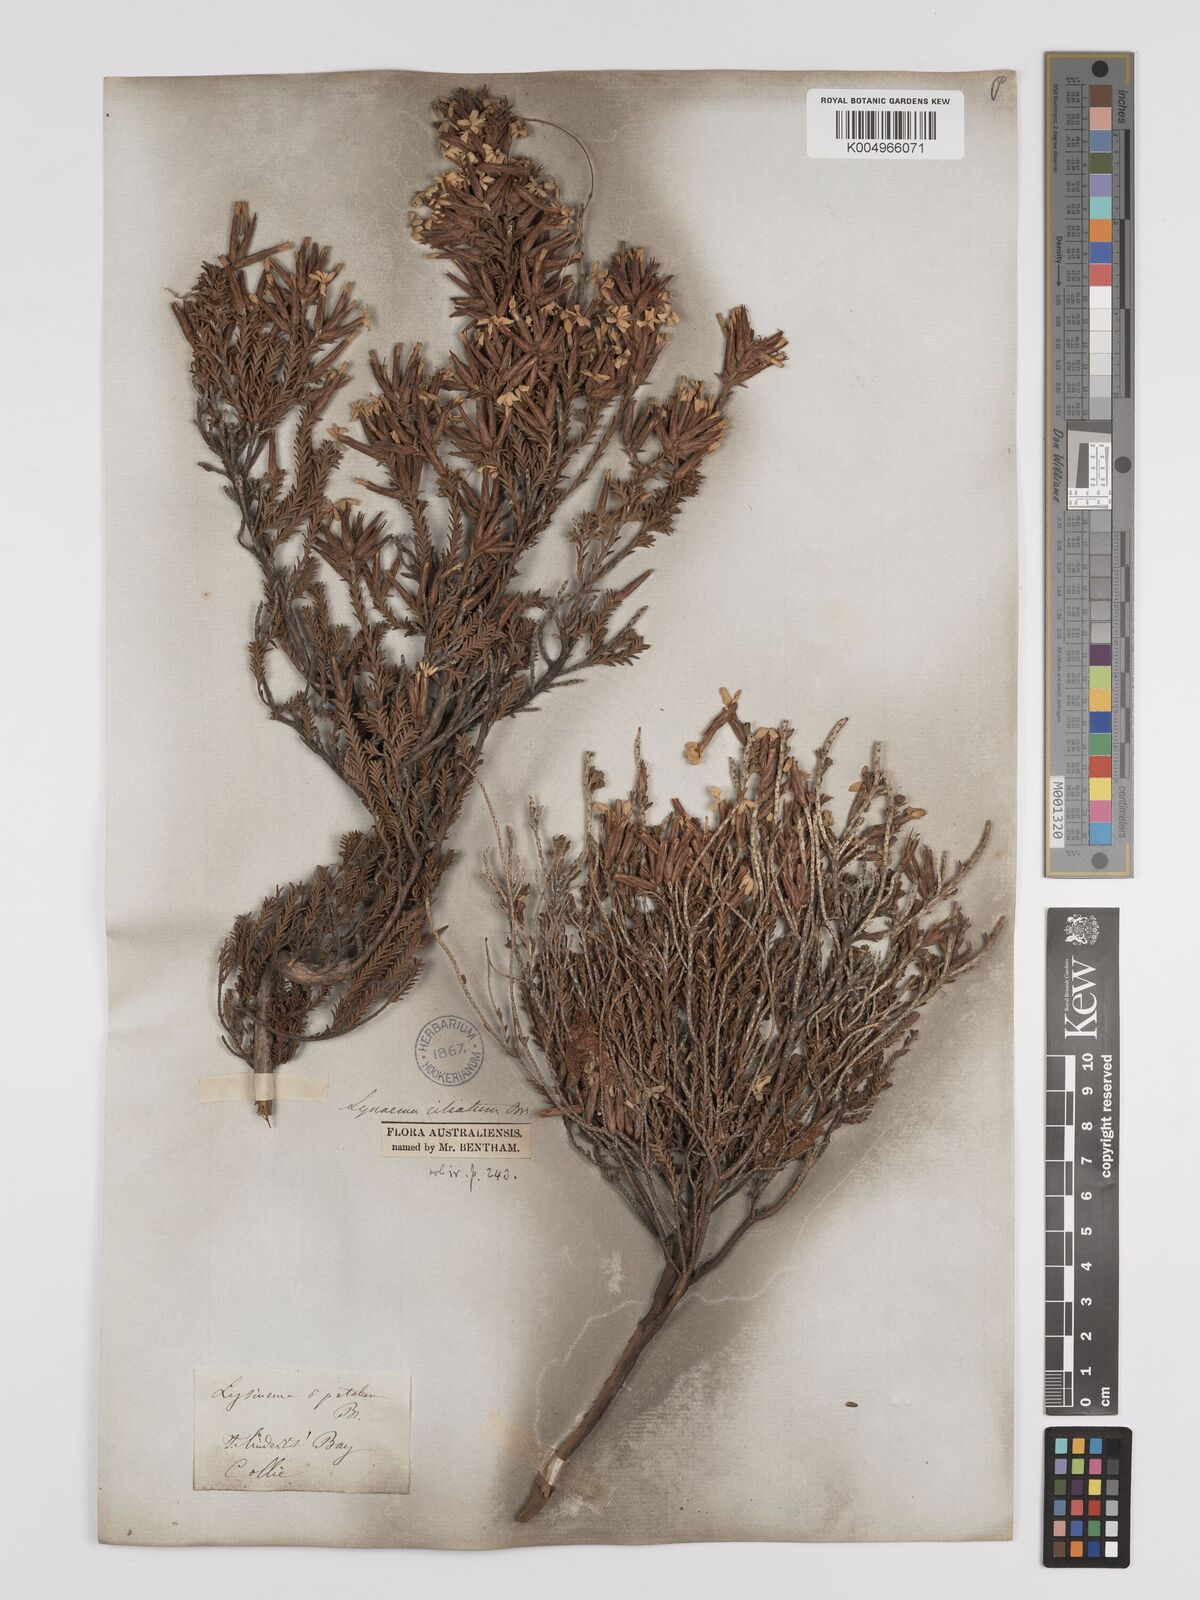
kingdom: Plantae
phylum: Tracheophyta
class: Magnoliopsida
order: Ericales
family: Ericaceae
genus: Lysinema
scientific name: Lysinema ciliatum
